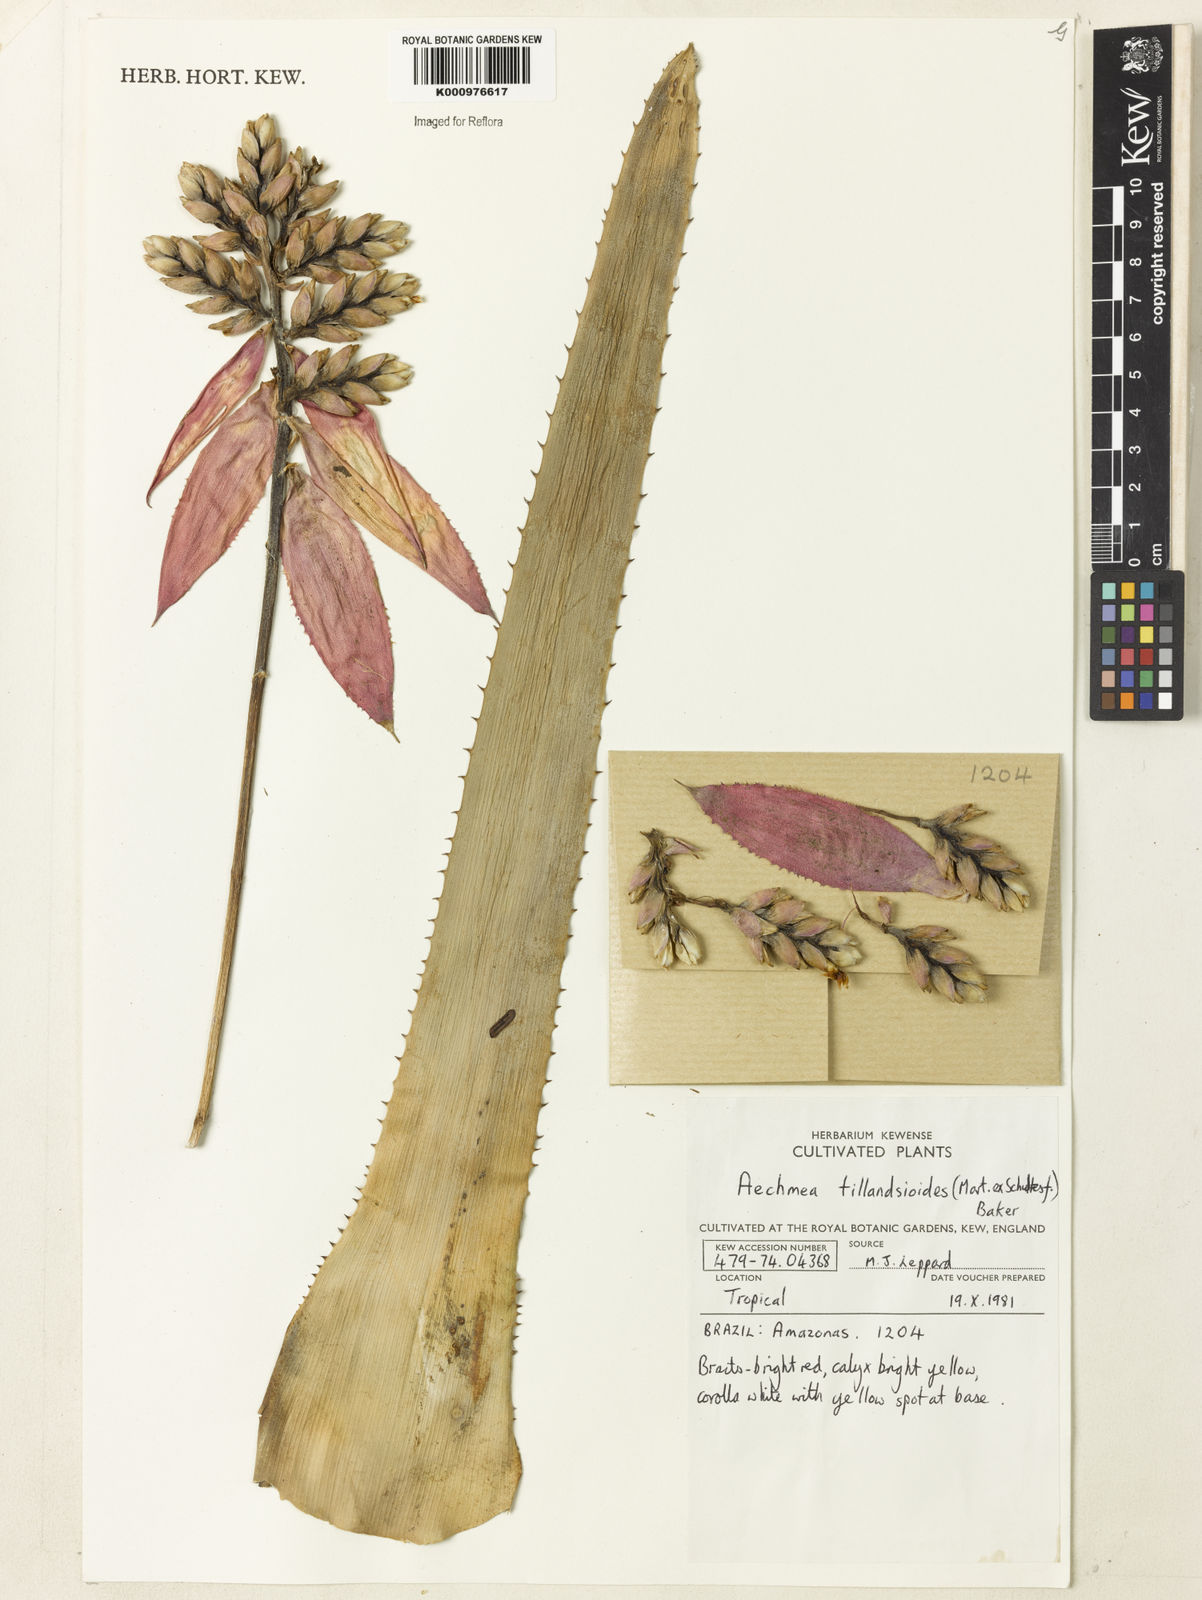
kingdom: Plantae
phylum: Tracheophyta
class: Liliopsida
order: Poales
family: Bromeliaceae
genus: Aechmea
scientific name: Aechmea tillandsioides
